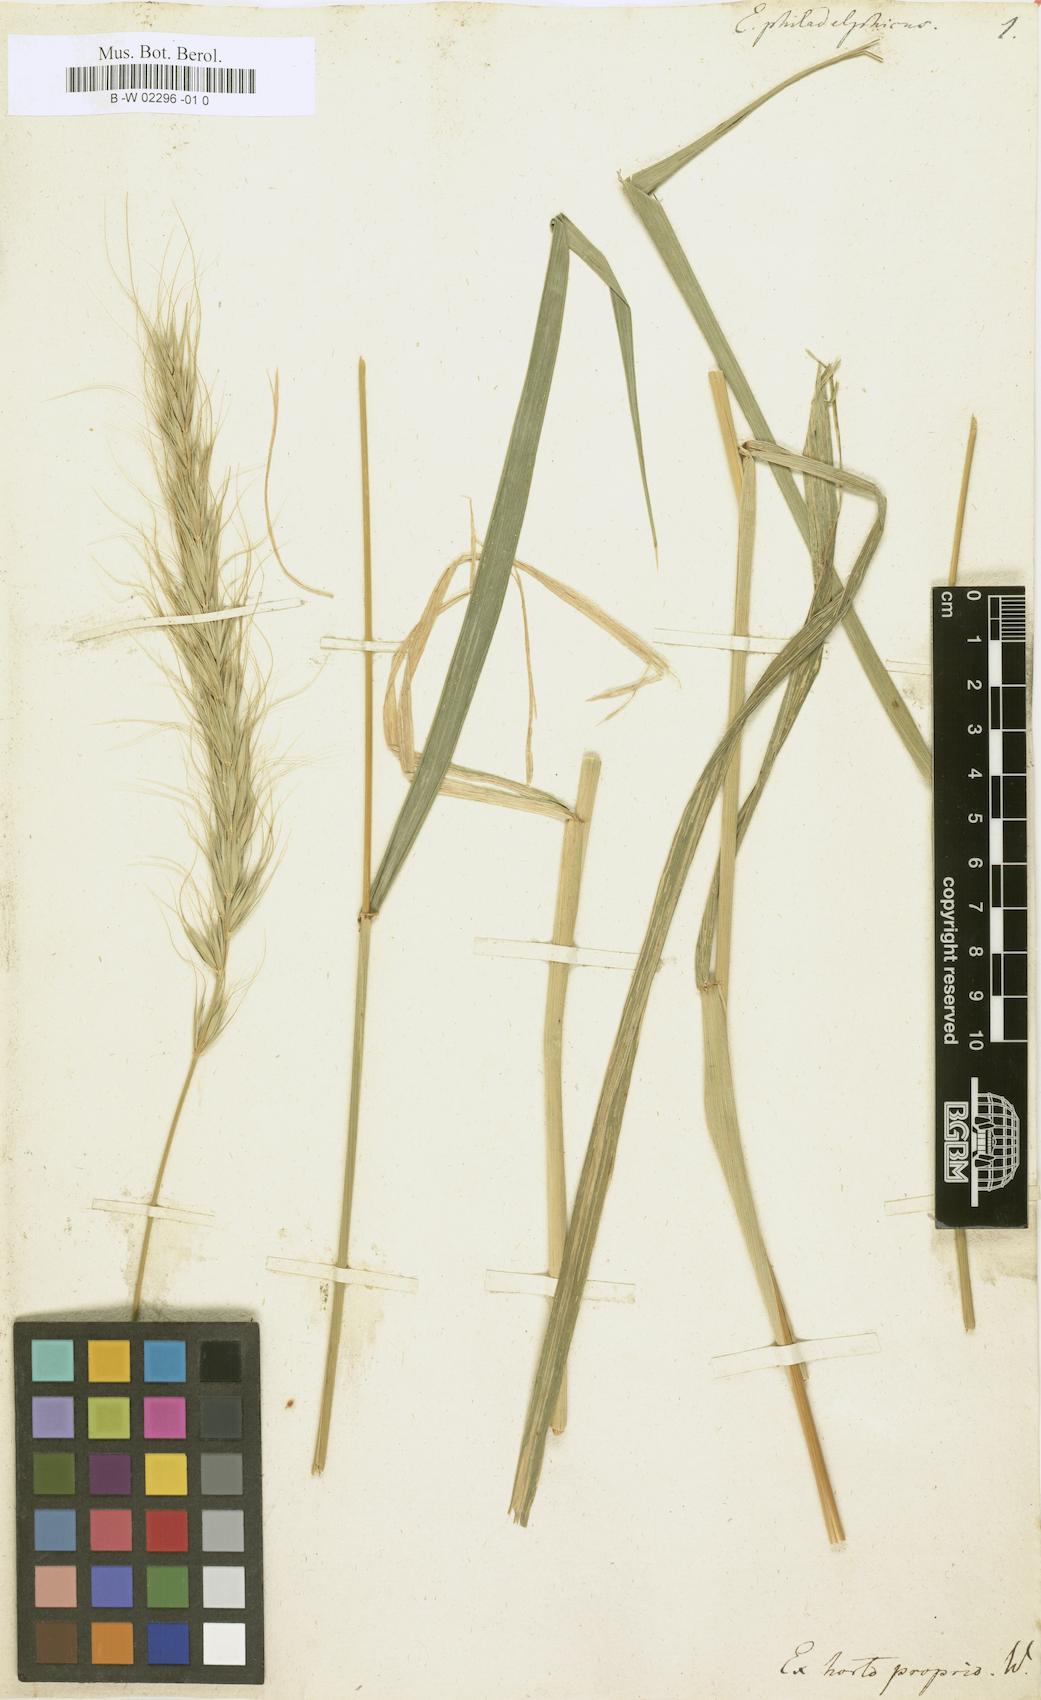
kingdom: Plantae
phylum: Tracheophyta
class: Liliopsida
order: Poales
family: Poaceae
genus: Elymus
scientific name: Elymus canadensis
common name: Canada wild rye
